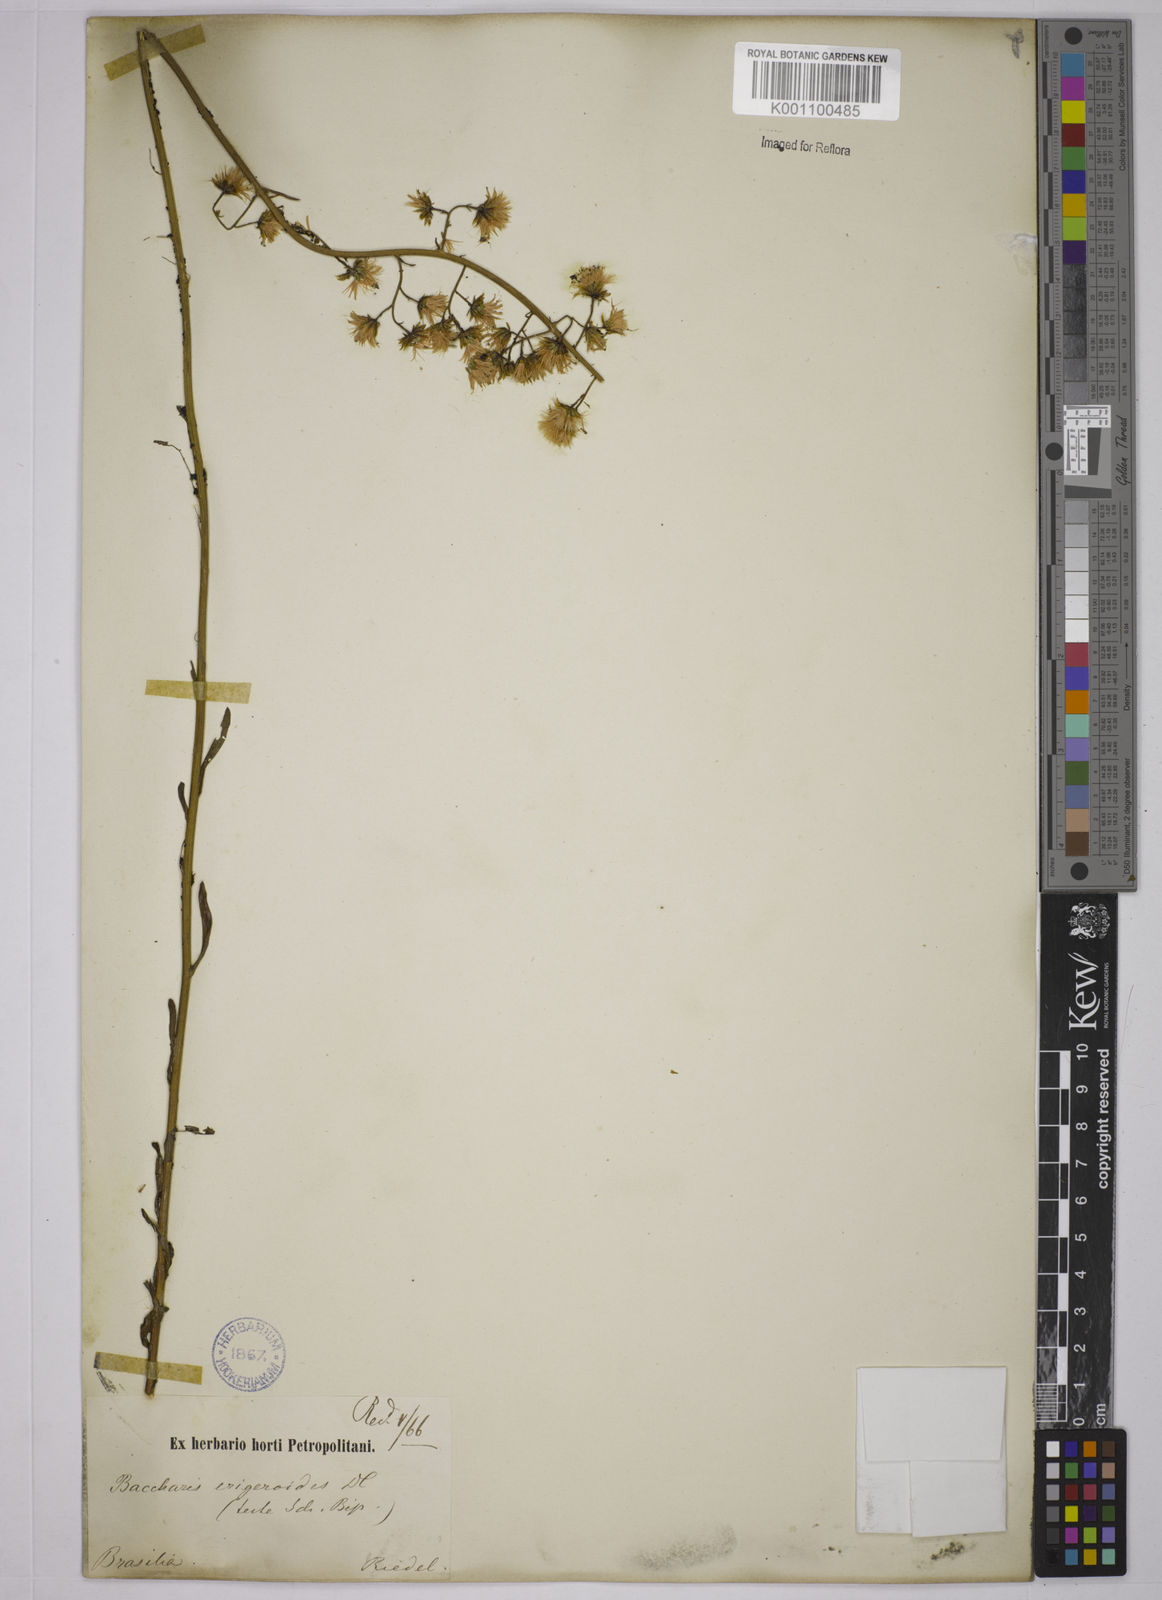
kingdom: Plantae
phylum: Tracheophyta
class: Magnoliopsida
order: Asterales
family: Asteraceae
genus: Baccharis
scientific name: Baccharis erigeroides
